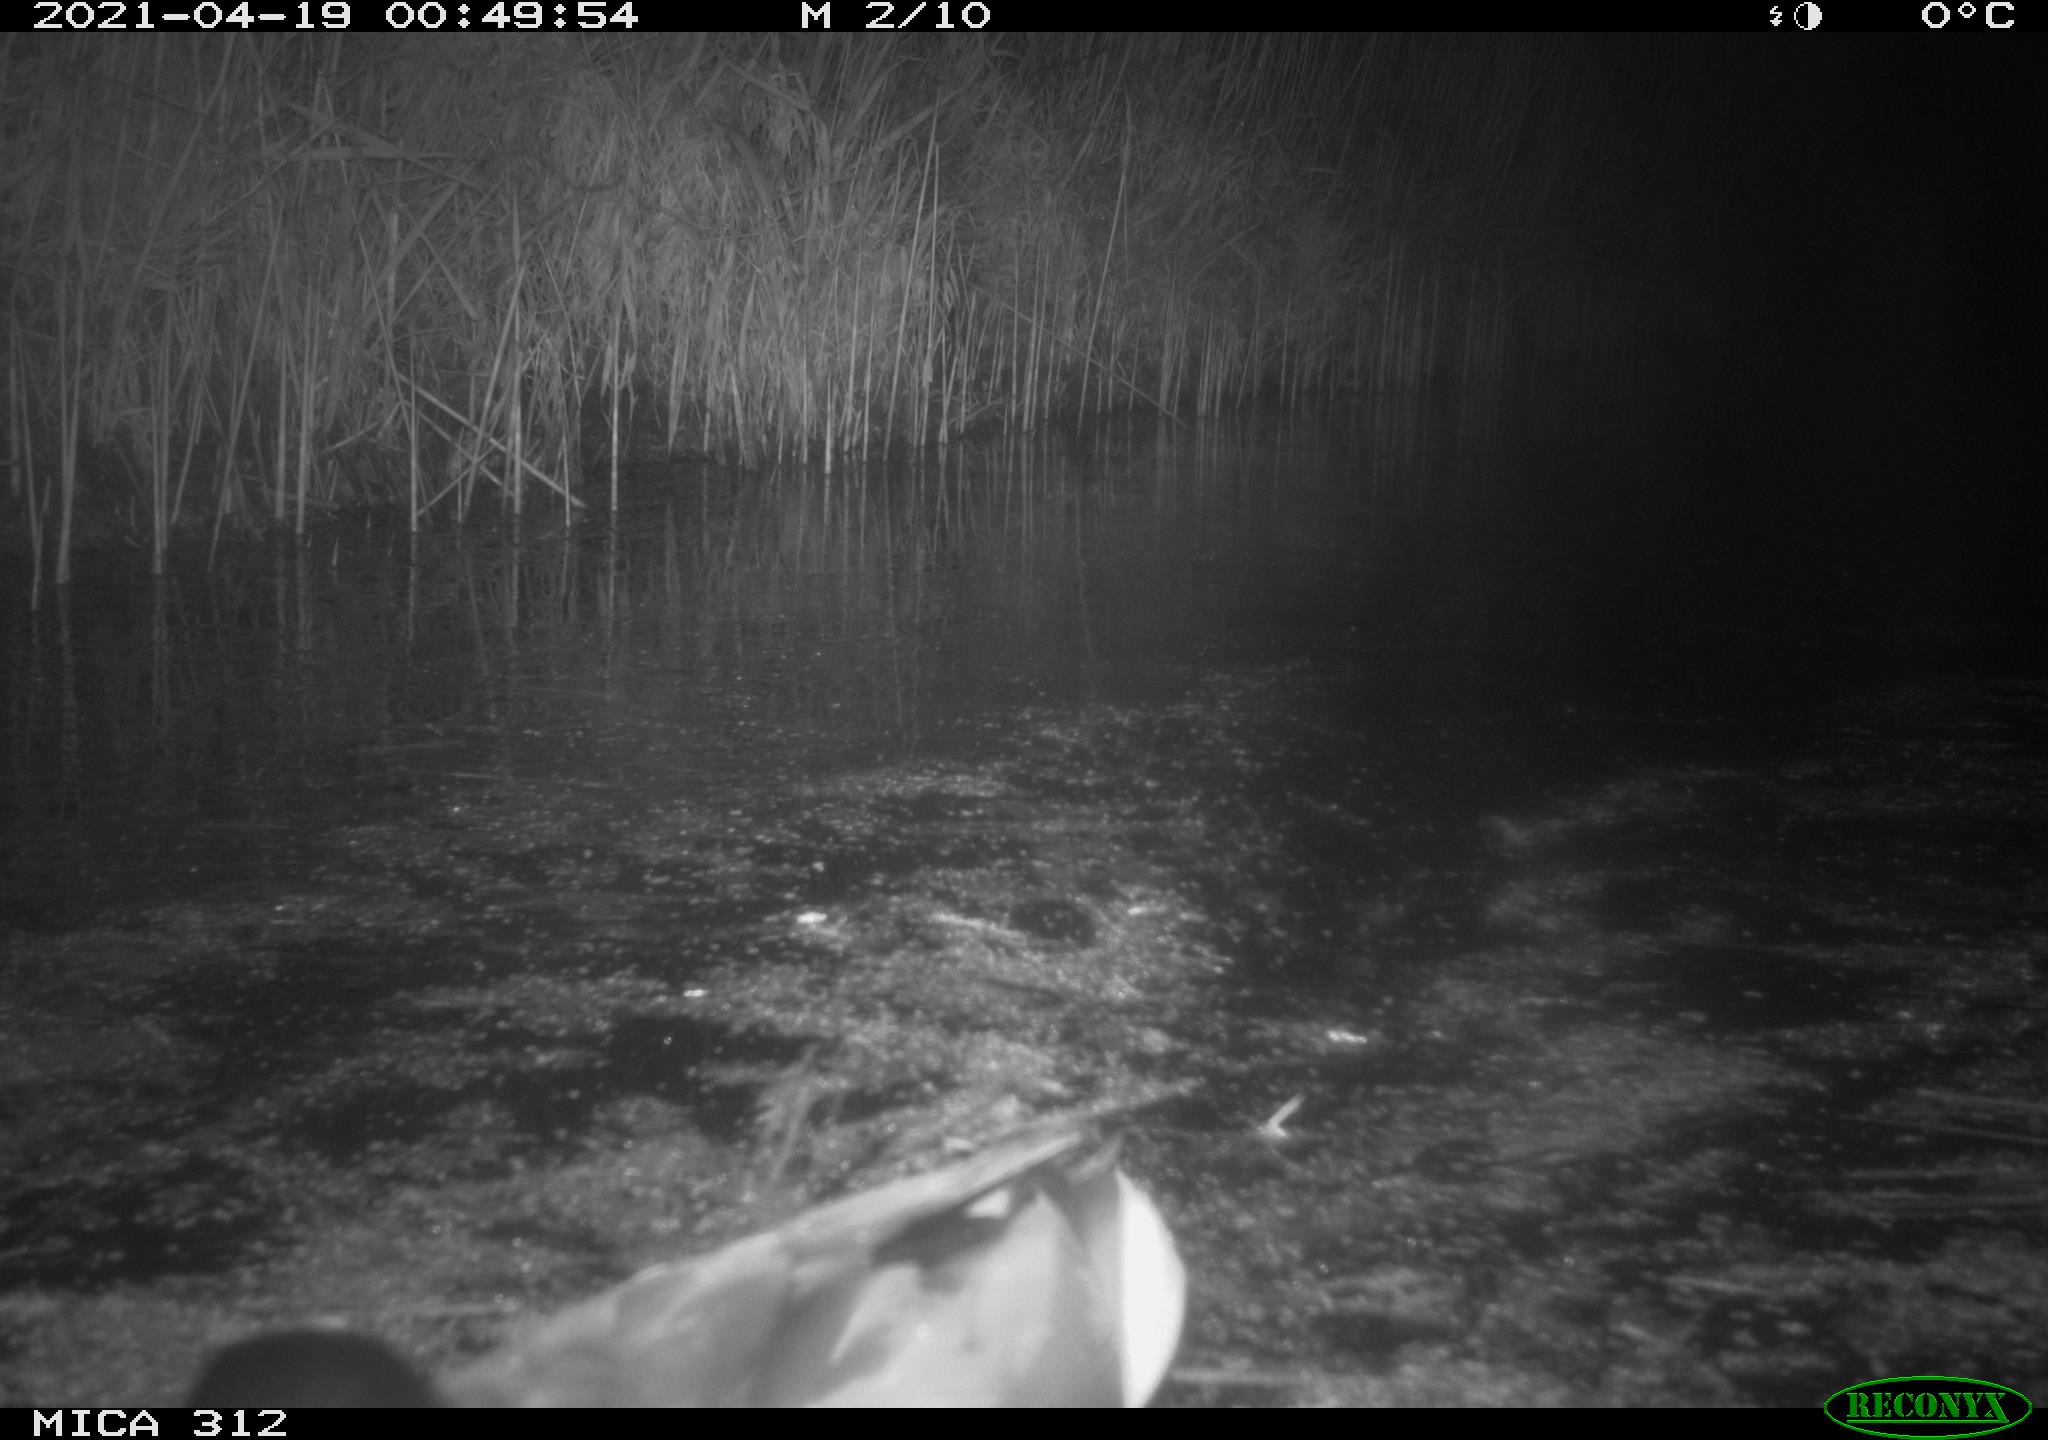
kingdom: Animalia
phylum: Chordata
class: Aves
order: Anseriformes
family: Anatidae
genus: Anas
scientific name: Anas platyrhynchos
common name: Mallard
